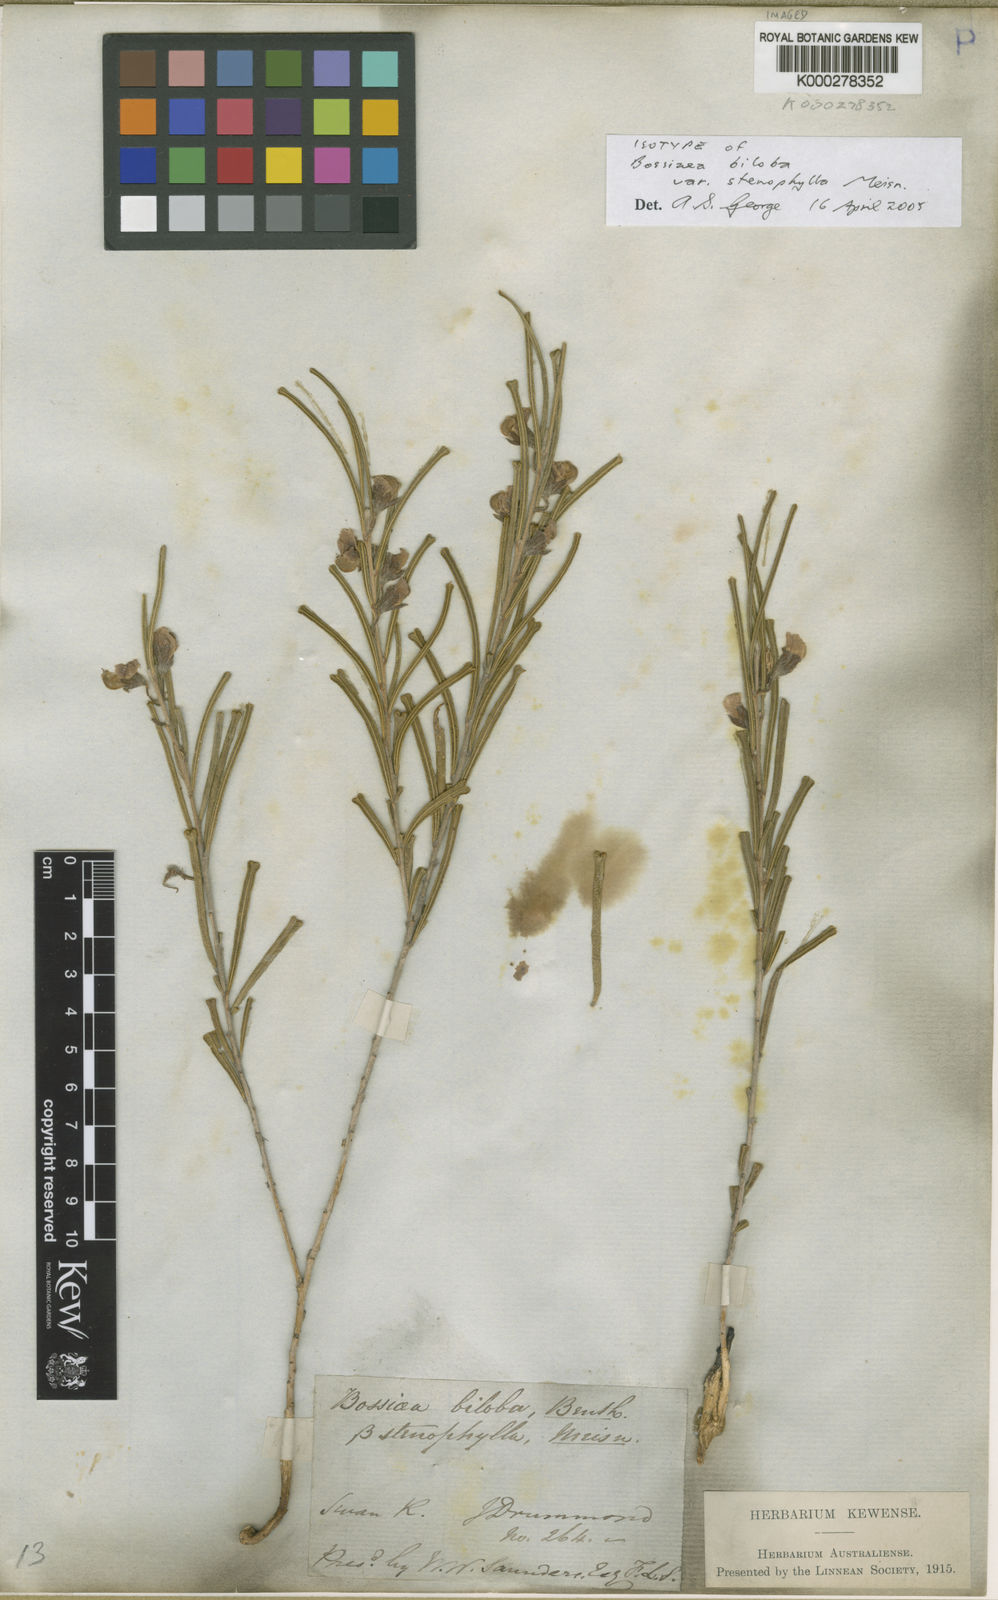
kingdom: Plantae
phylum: Tracheophyta
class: Magnoliopsida
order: Fabales
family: Fabaceae
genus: Cristonia
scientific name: Cristonia biloba
